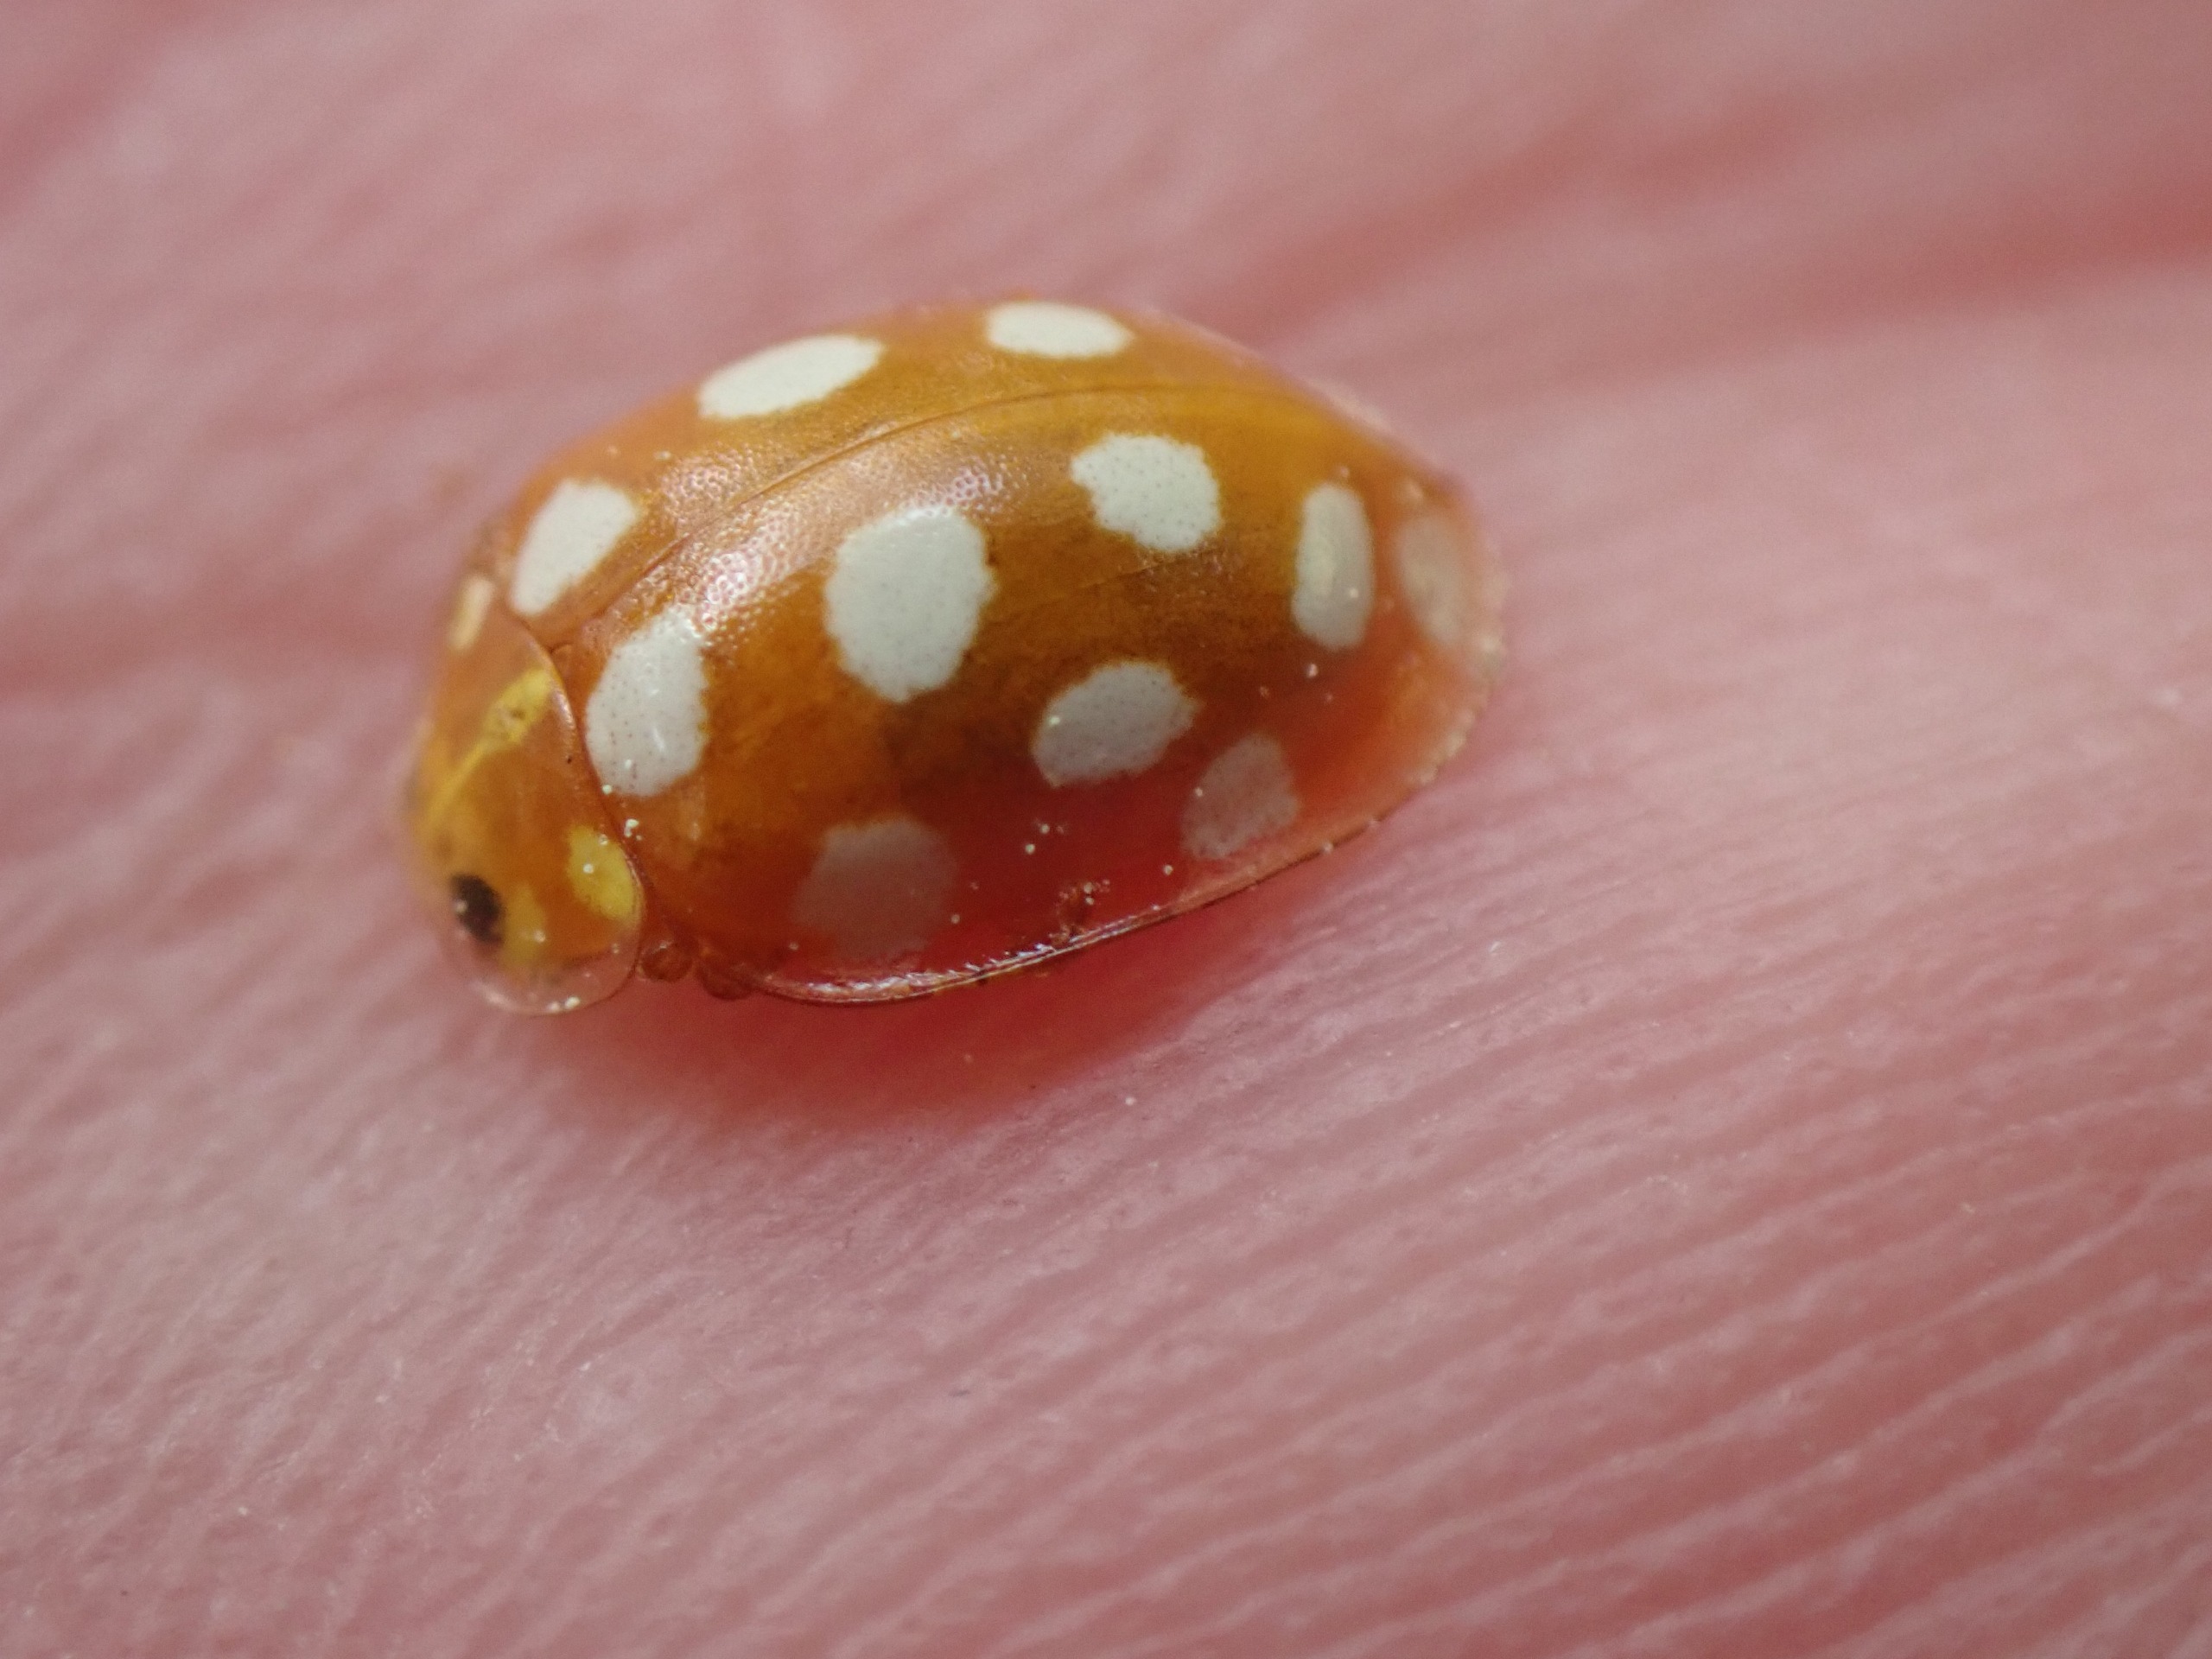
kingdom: Animalia
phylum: Arthropoda
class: Insecta
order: Coleoptera
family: Coccinellidae
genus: Halyzia
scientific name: Halyzia sedecimguttata
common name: Sekstenplettet mariehøne
